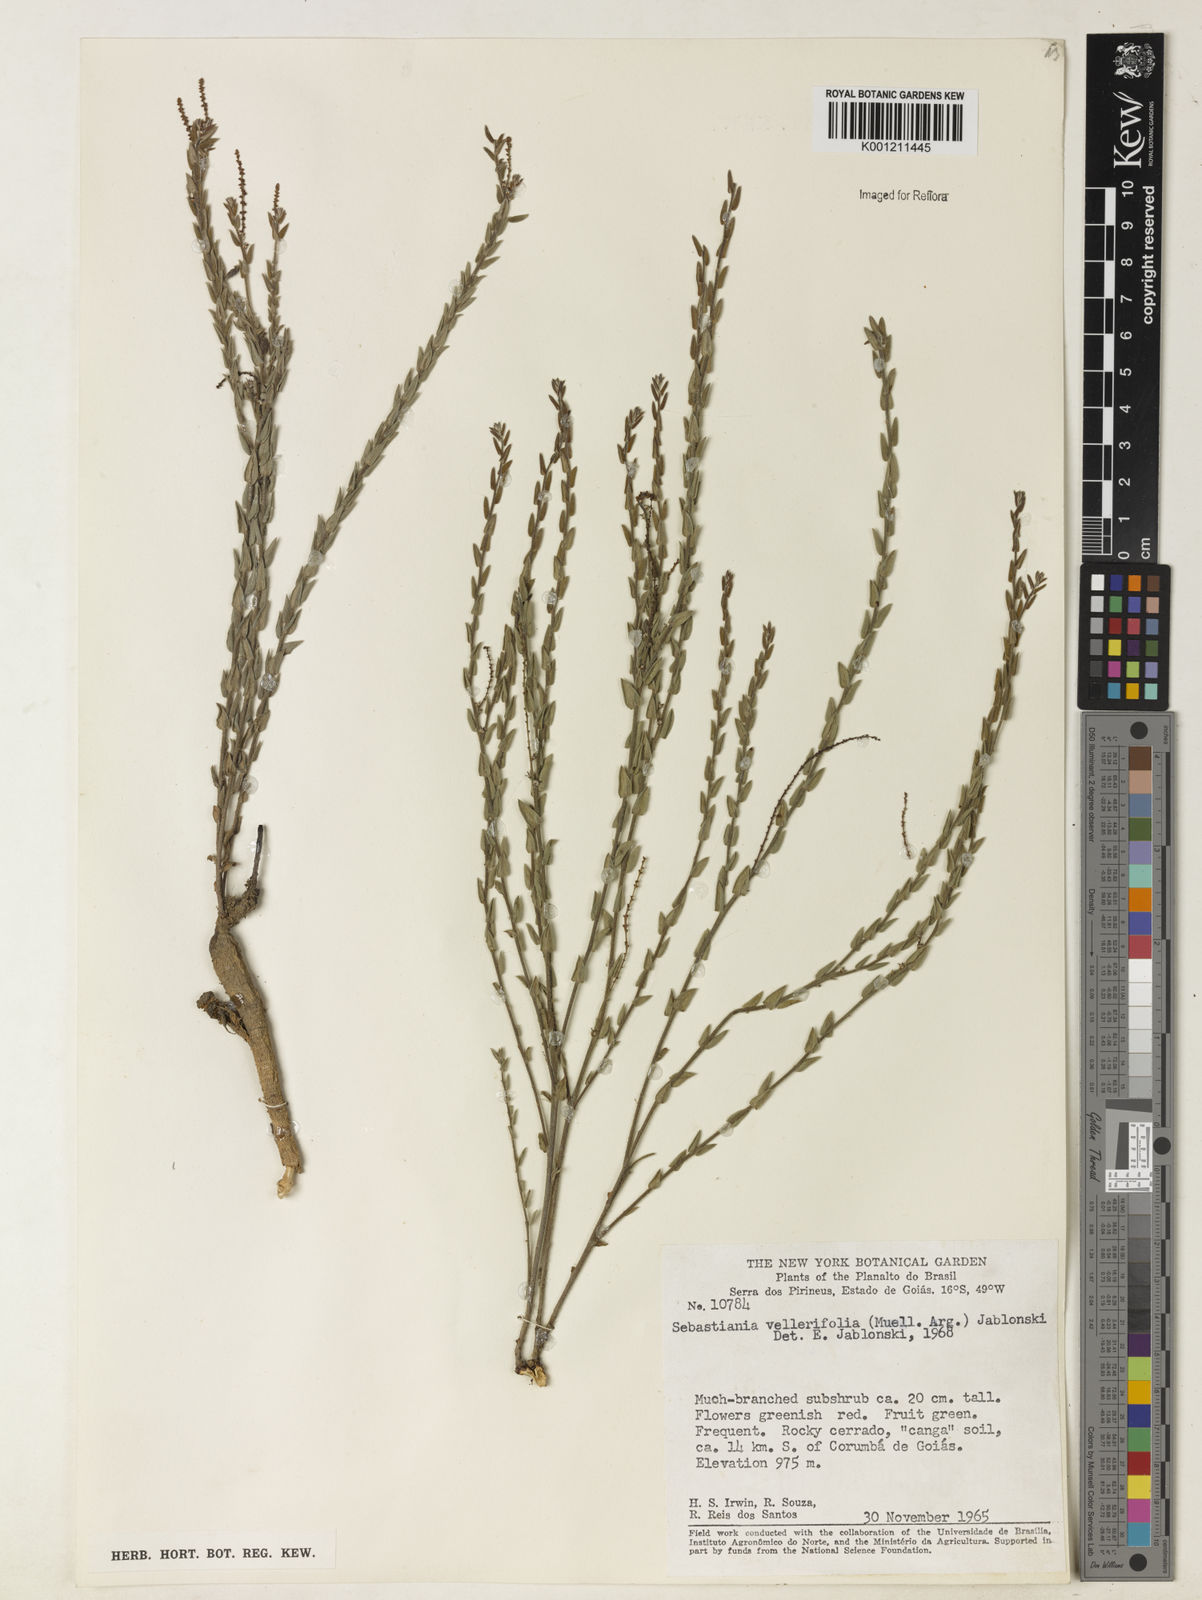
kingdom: Plantae
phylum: Tracheophyta
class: Magnoliopsida
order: Malpighiales
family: Euphorbiaceae
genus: Microstachys
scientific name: Microstachys ditassoides
